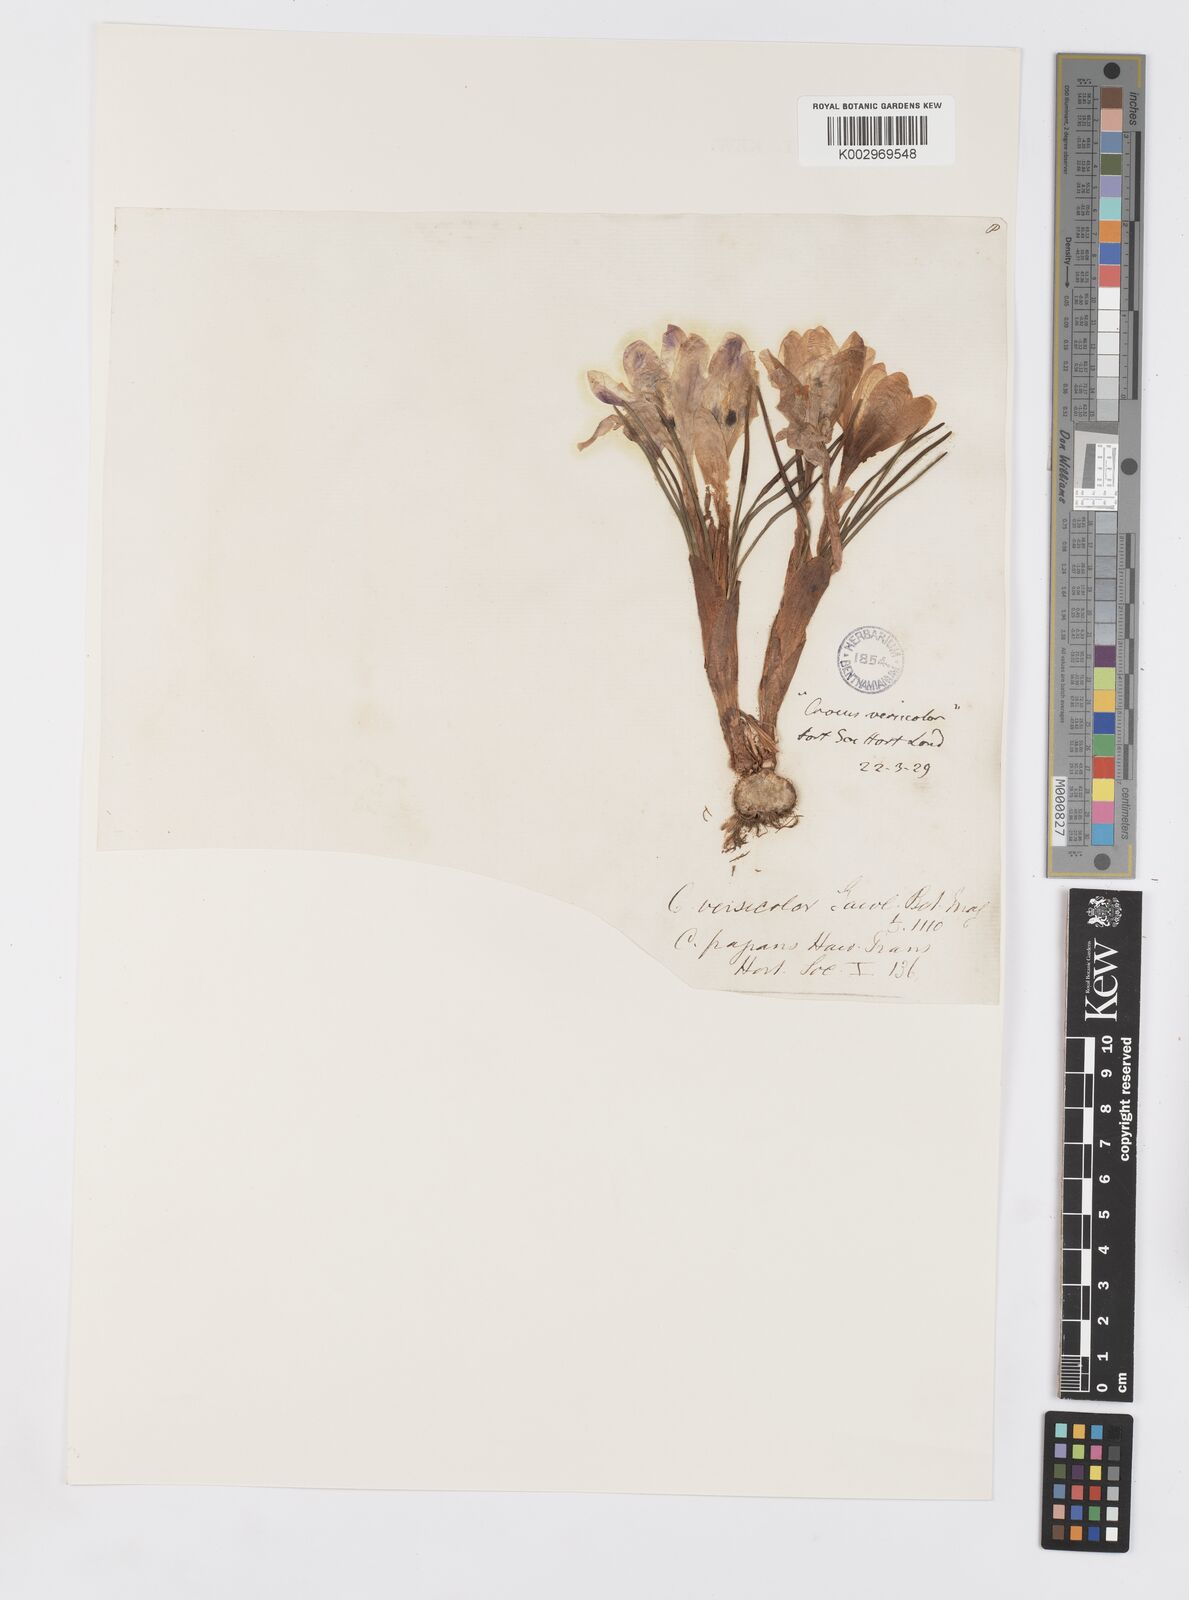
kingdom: Plantae
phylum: Tracheophyta
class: Liliopsida
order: Asparagales
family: Iridaceae
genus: Crocus
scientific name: Crocus versicolor
